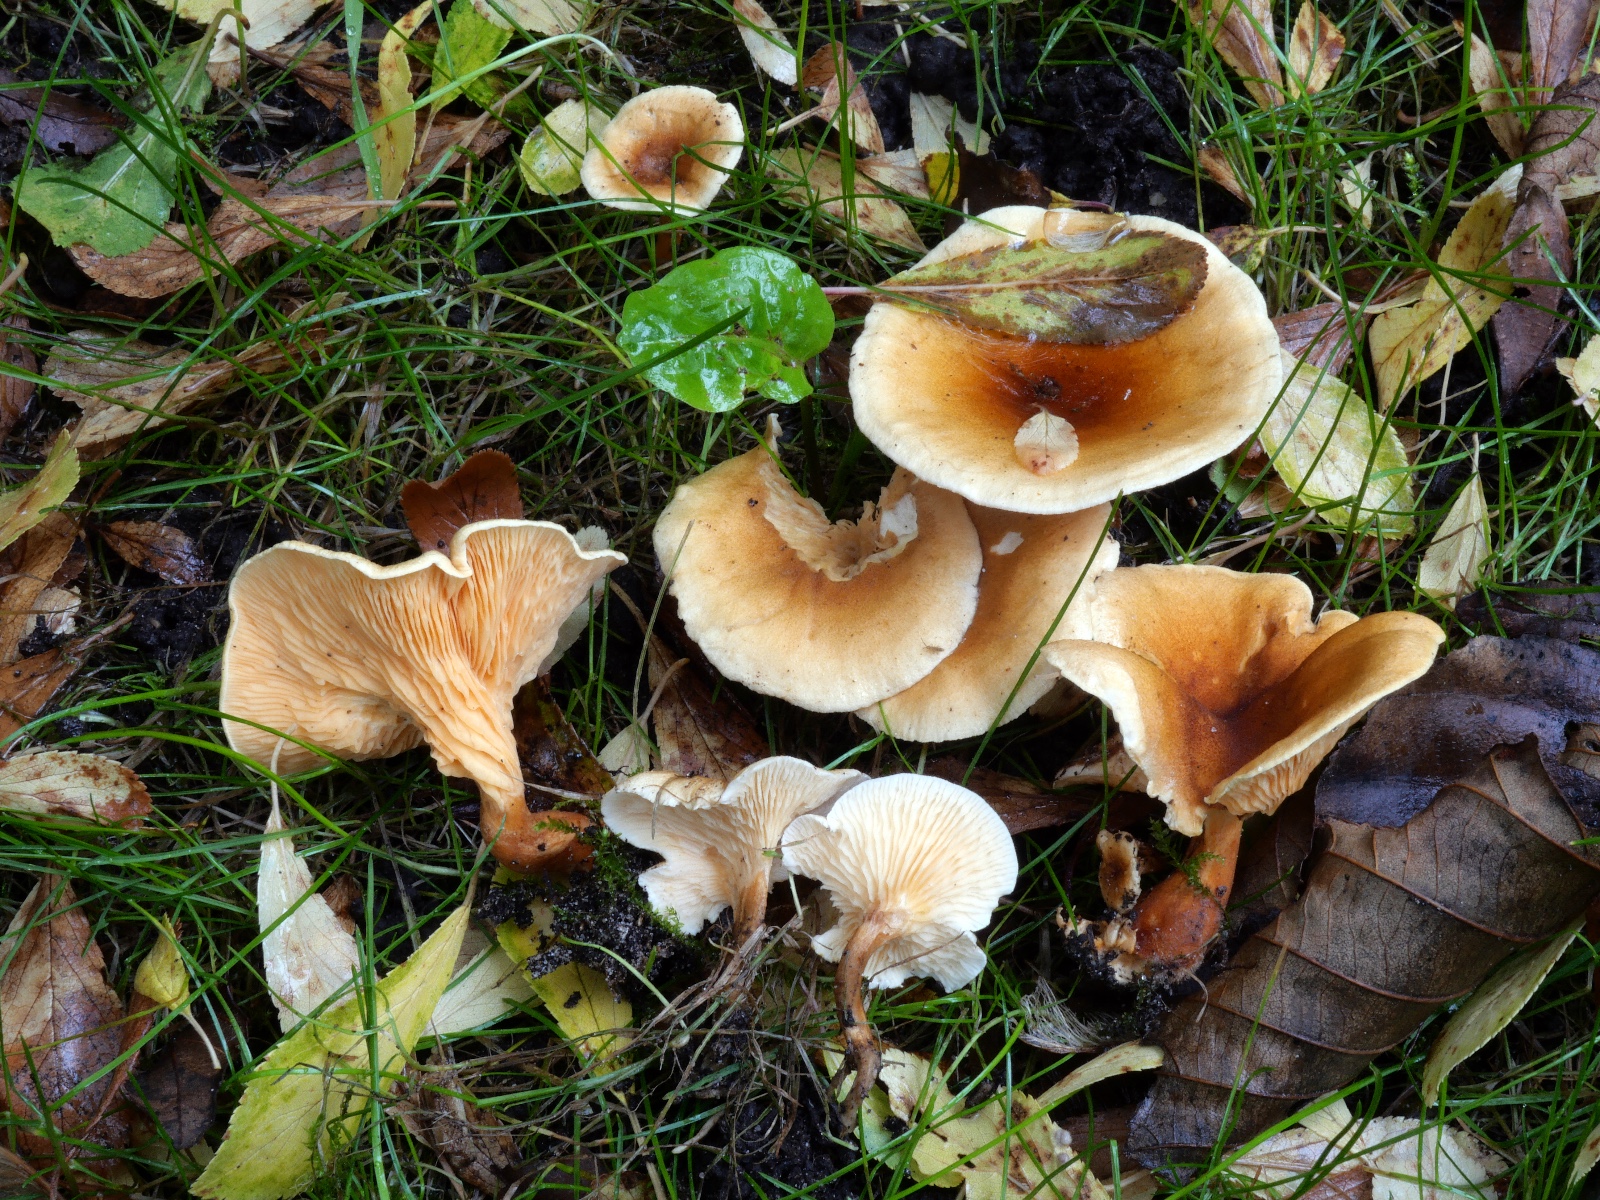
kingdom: Fungi
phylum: Basidiomycota
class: Agaricomycetes
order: Boletales
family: Hygrophoropsidaceae
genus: Hygrophoropsis
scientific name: Hygrophoropsis
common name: orangekantarel
